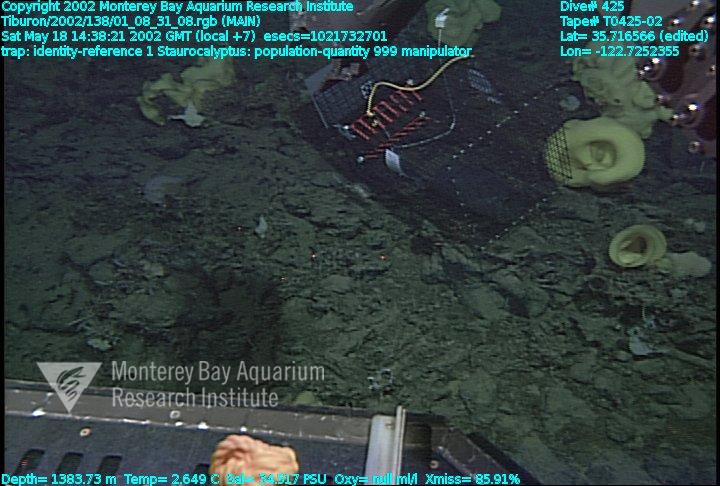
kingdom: Animalia
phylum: Porifera
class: Hexactinellida
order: Lyssacinosida
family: Rossellidae
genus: Staurocalyptus
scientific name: Staurocalyptus
